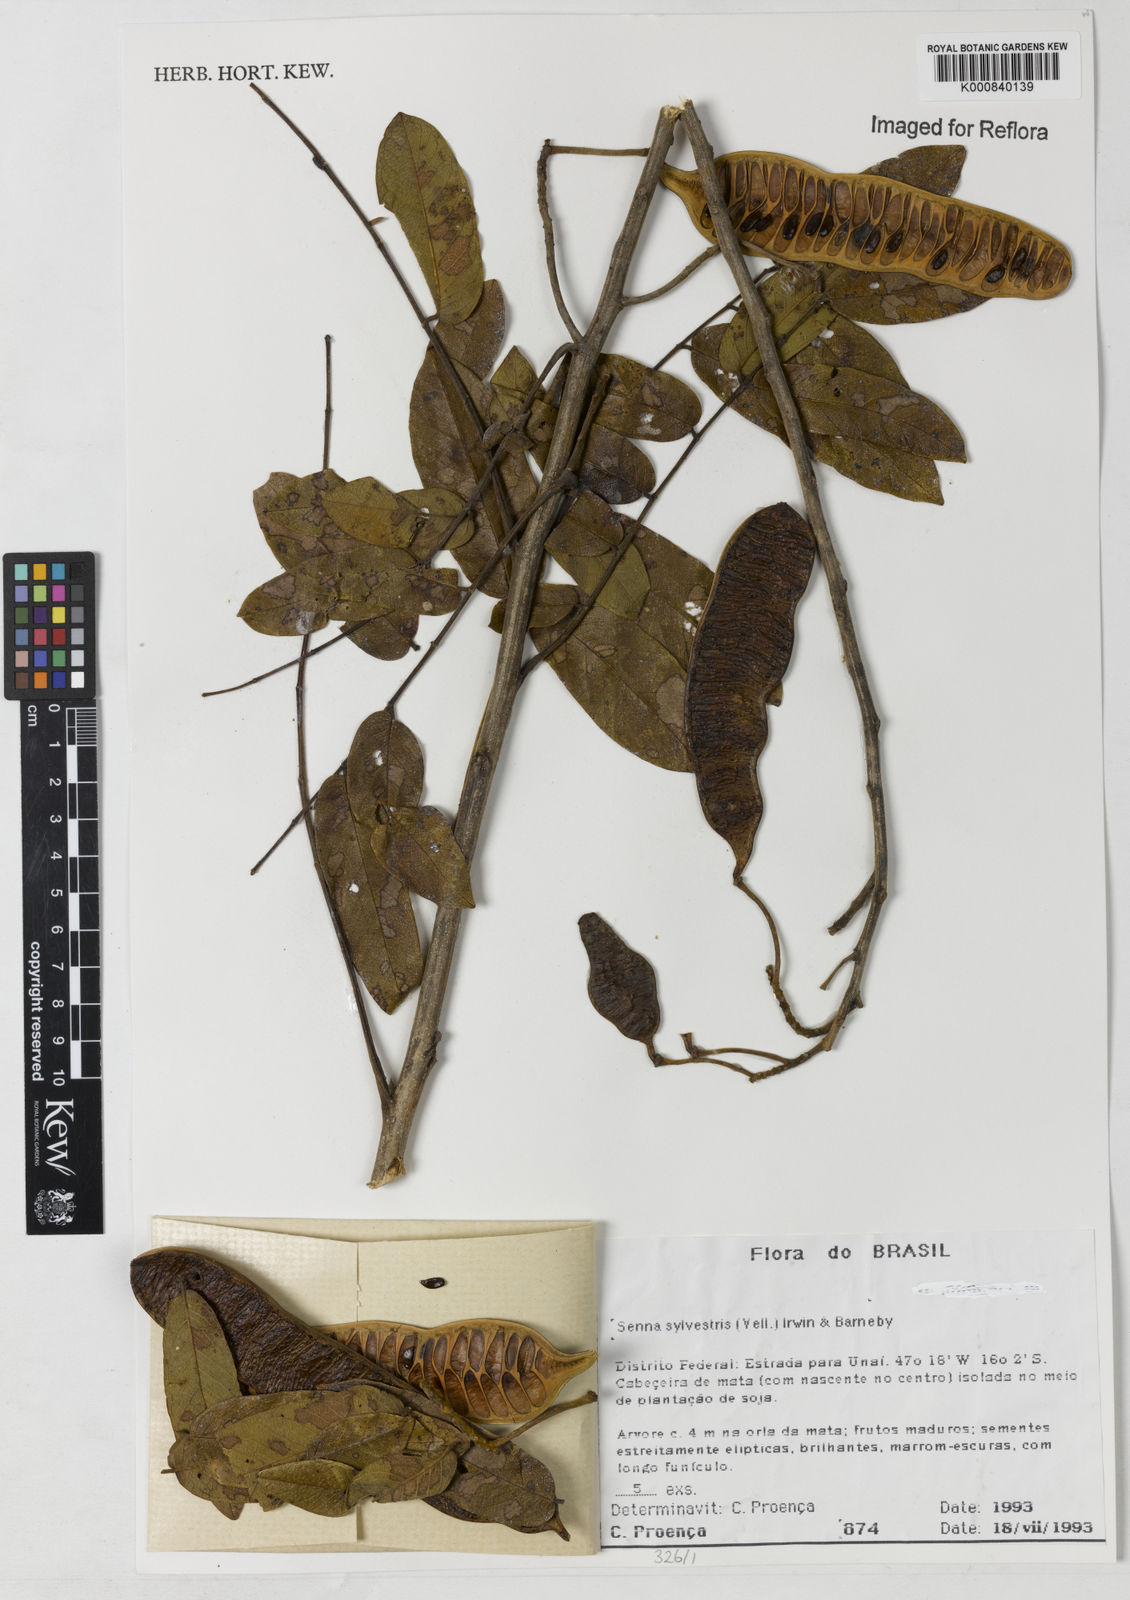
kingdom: Plantae
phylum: Tracheophyta
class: Magnoliopsida
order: Fabales
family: Fabaceae
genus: Senna
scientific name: Senna silvestris
